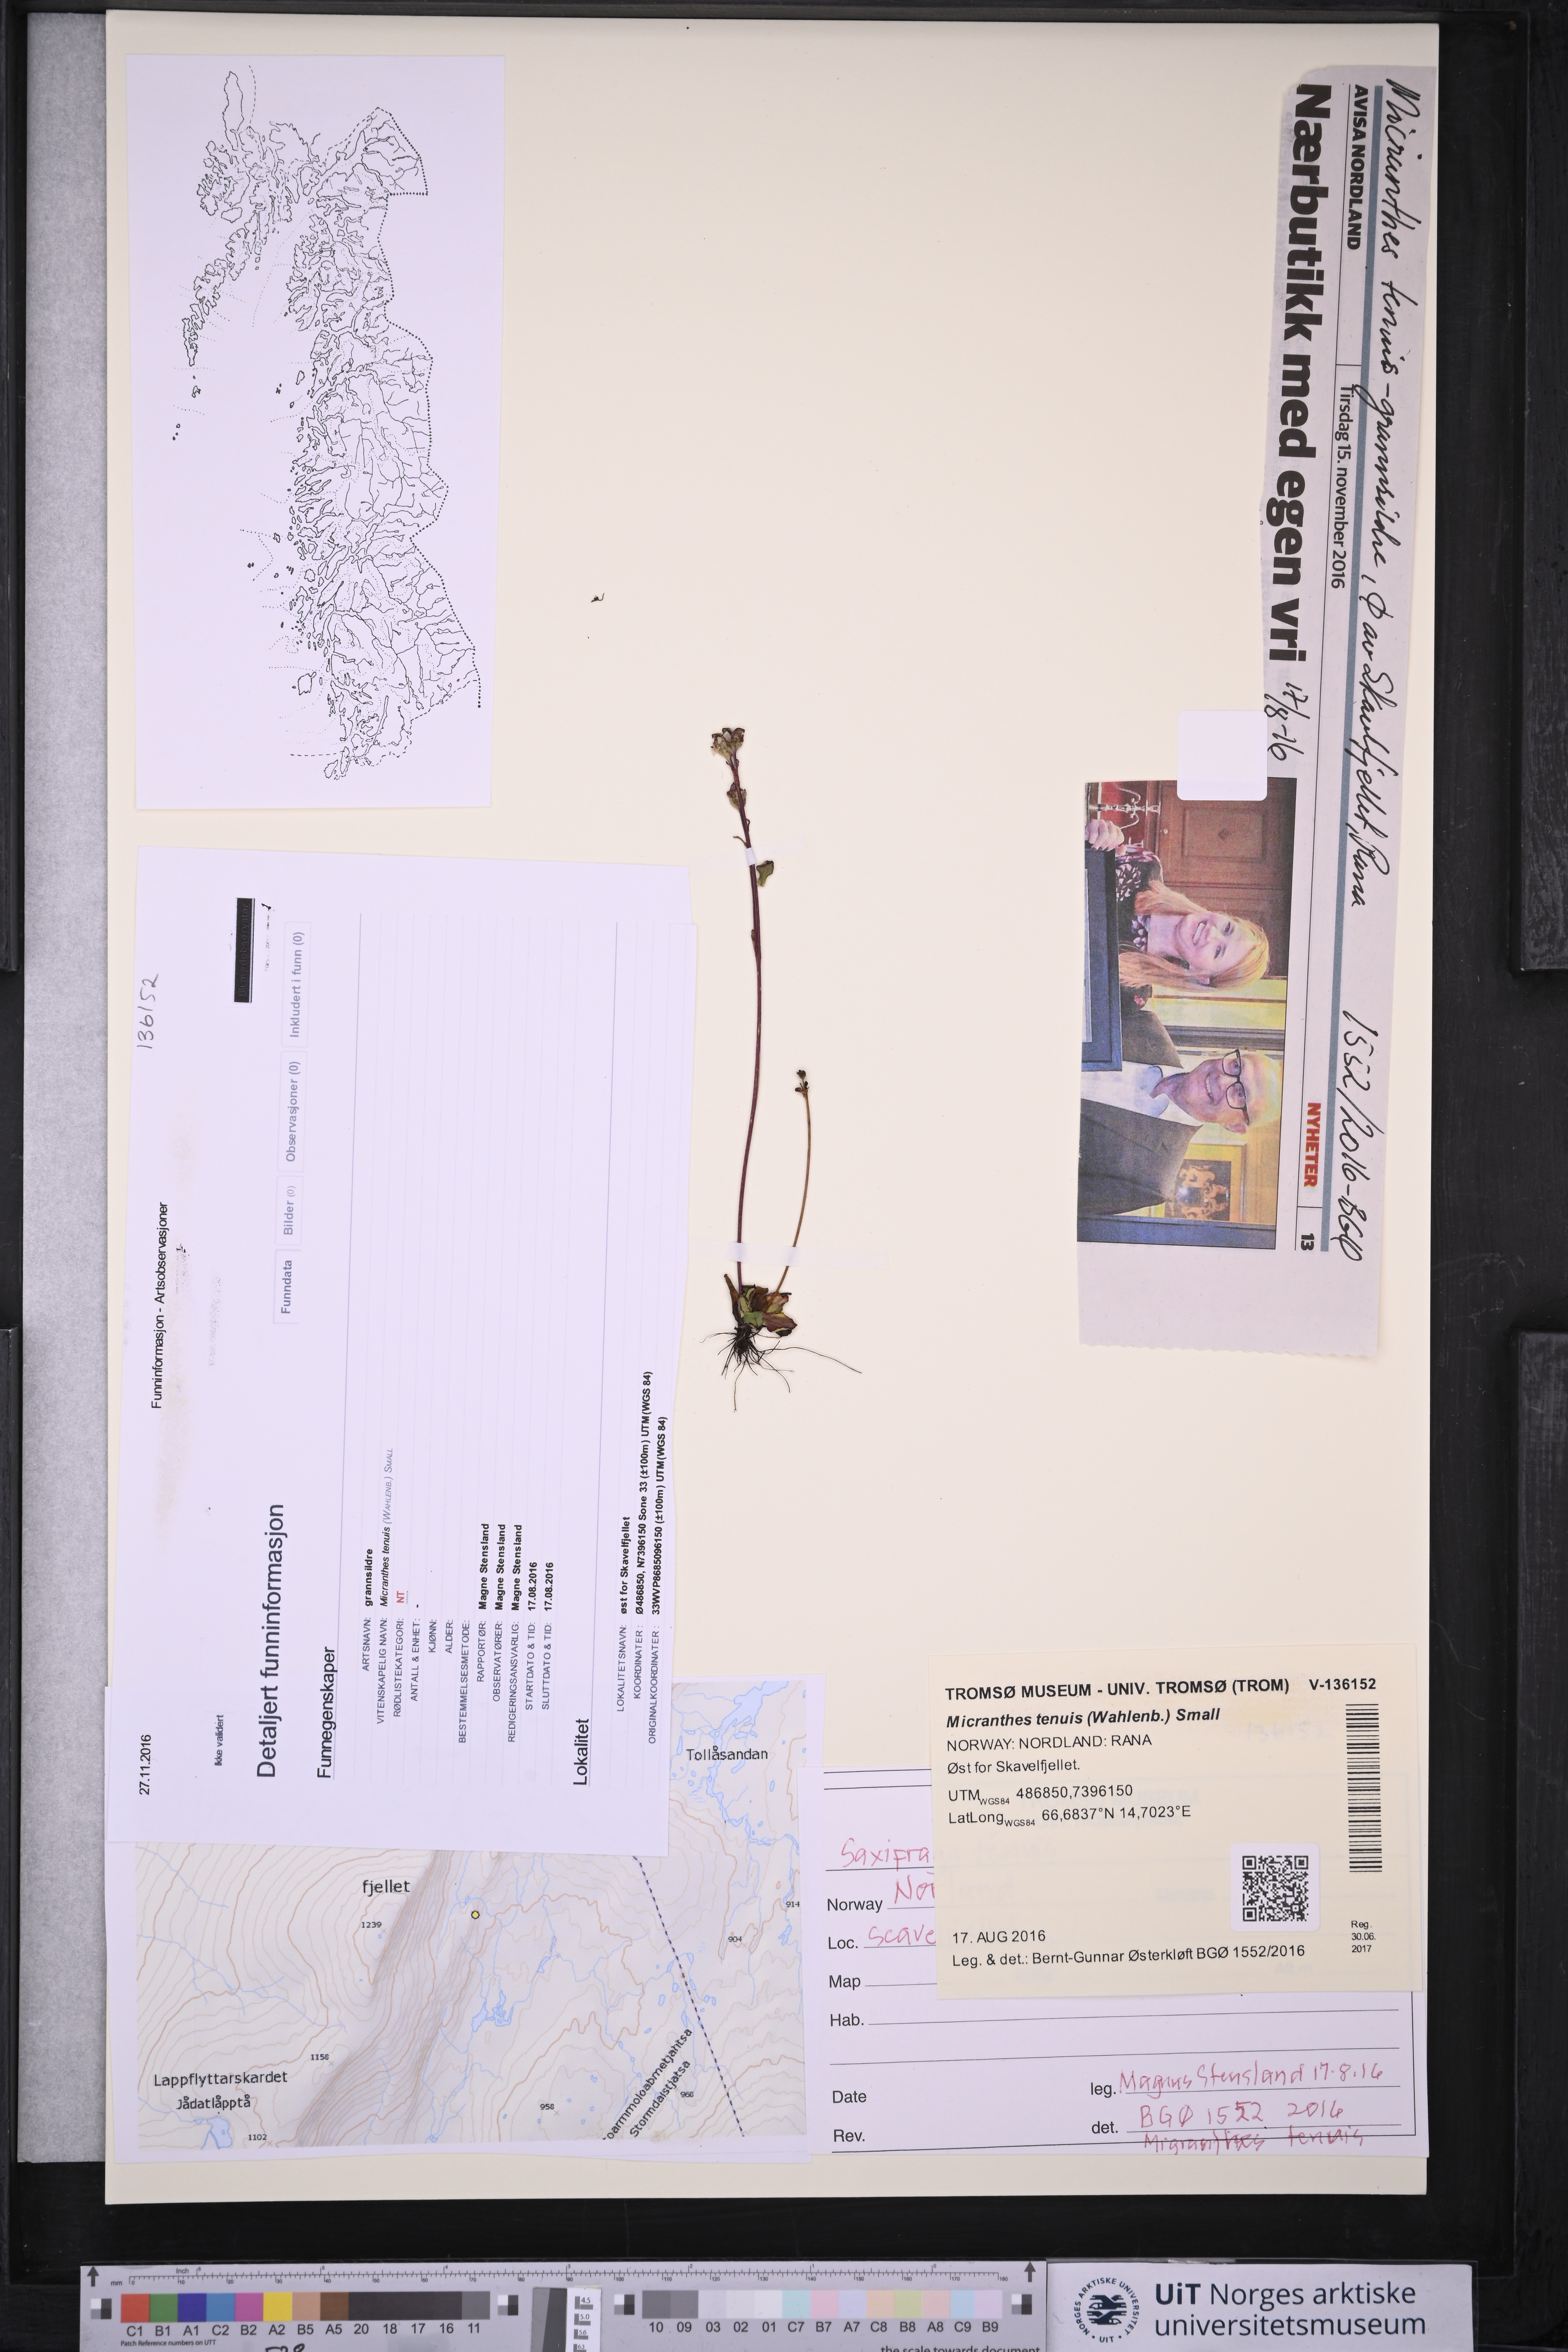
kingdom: Plantae
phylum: Tracheophyta
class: Magnoliopsida
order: Saxifragales
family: Saxifragaceae
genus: Micranthes
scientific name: Micranthes tenuis
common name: Ottertail pass saxifrage
